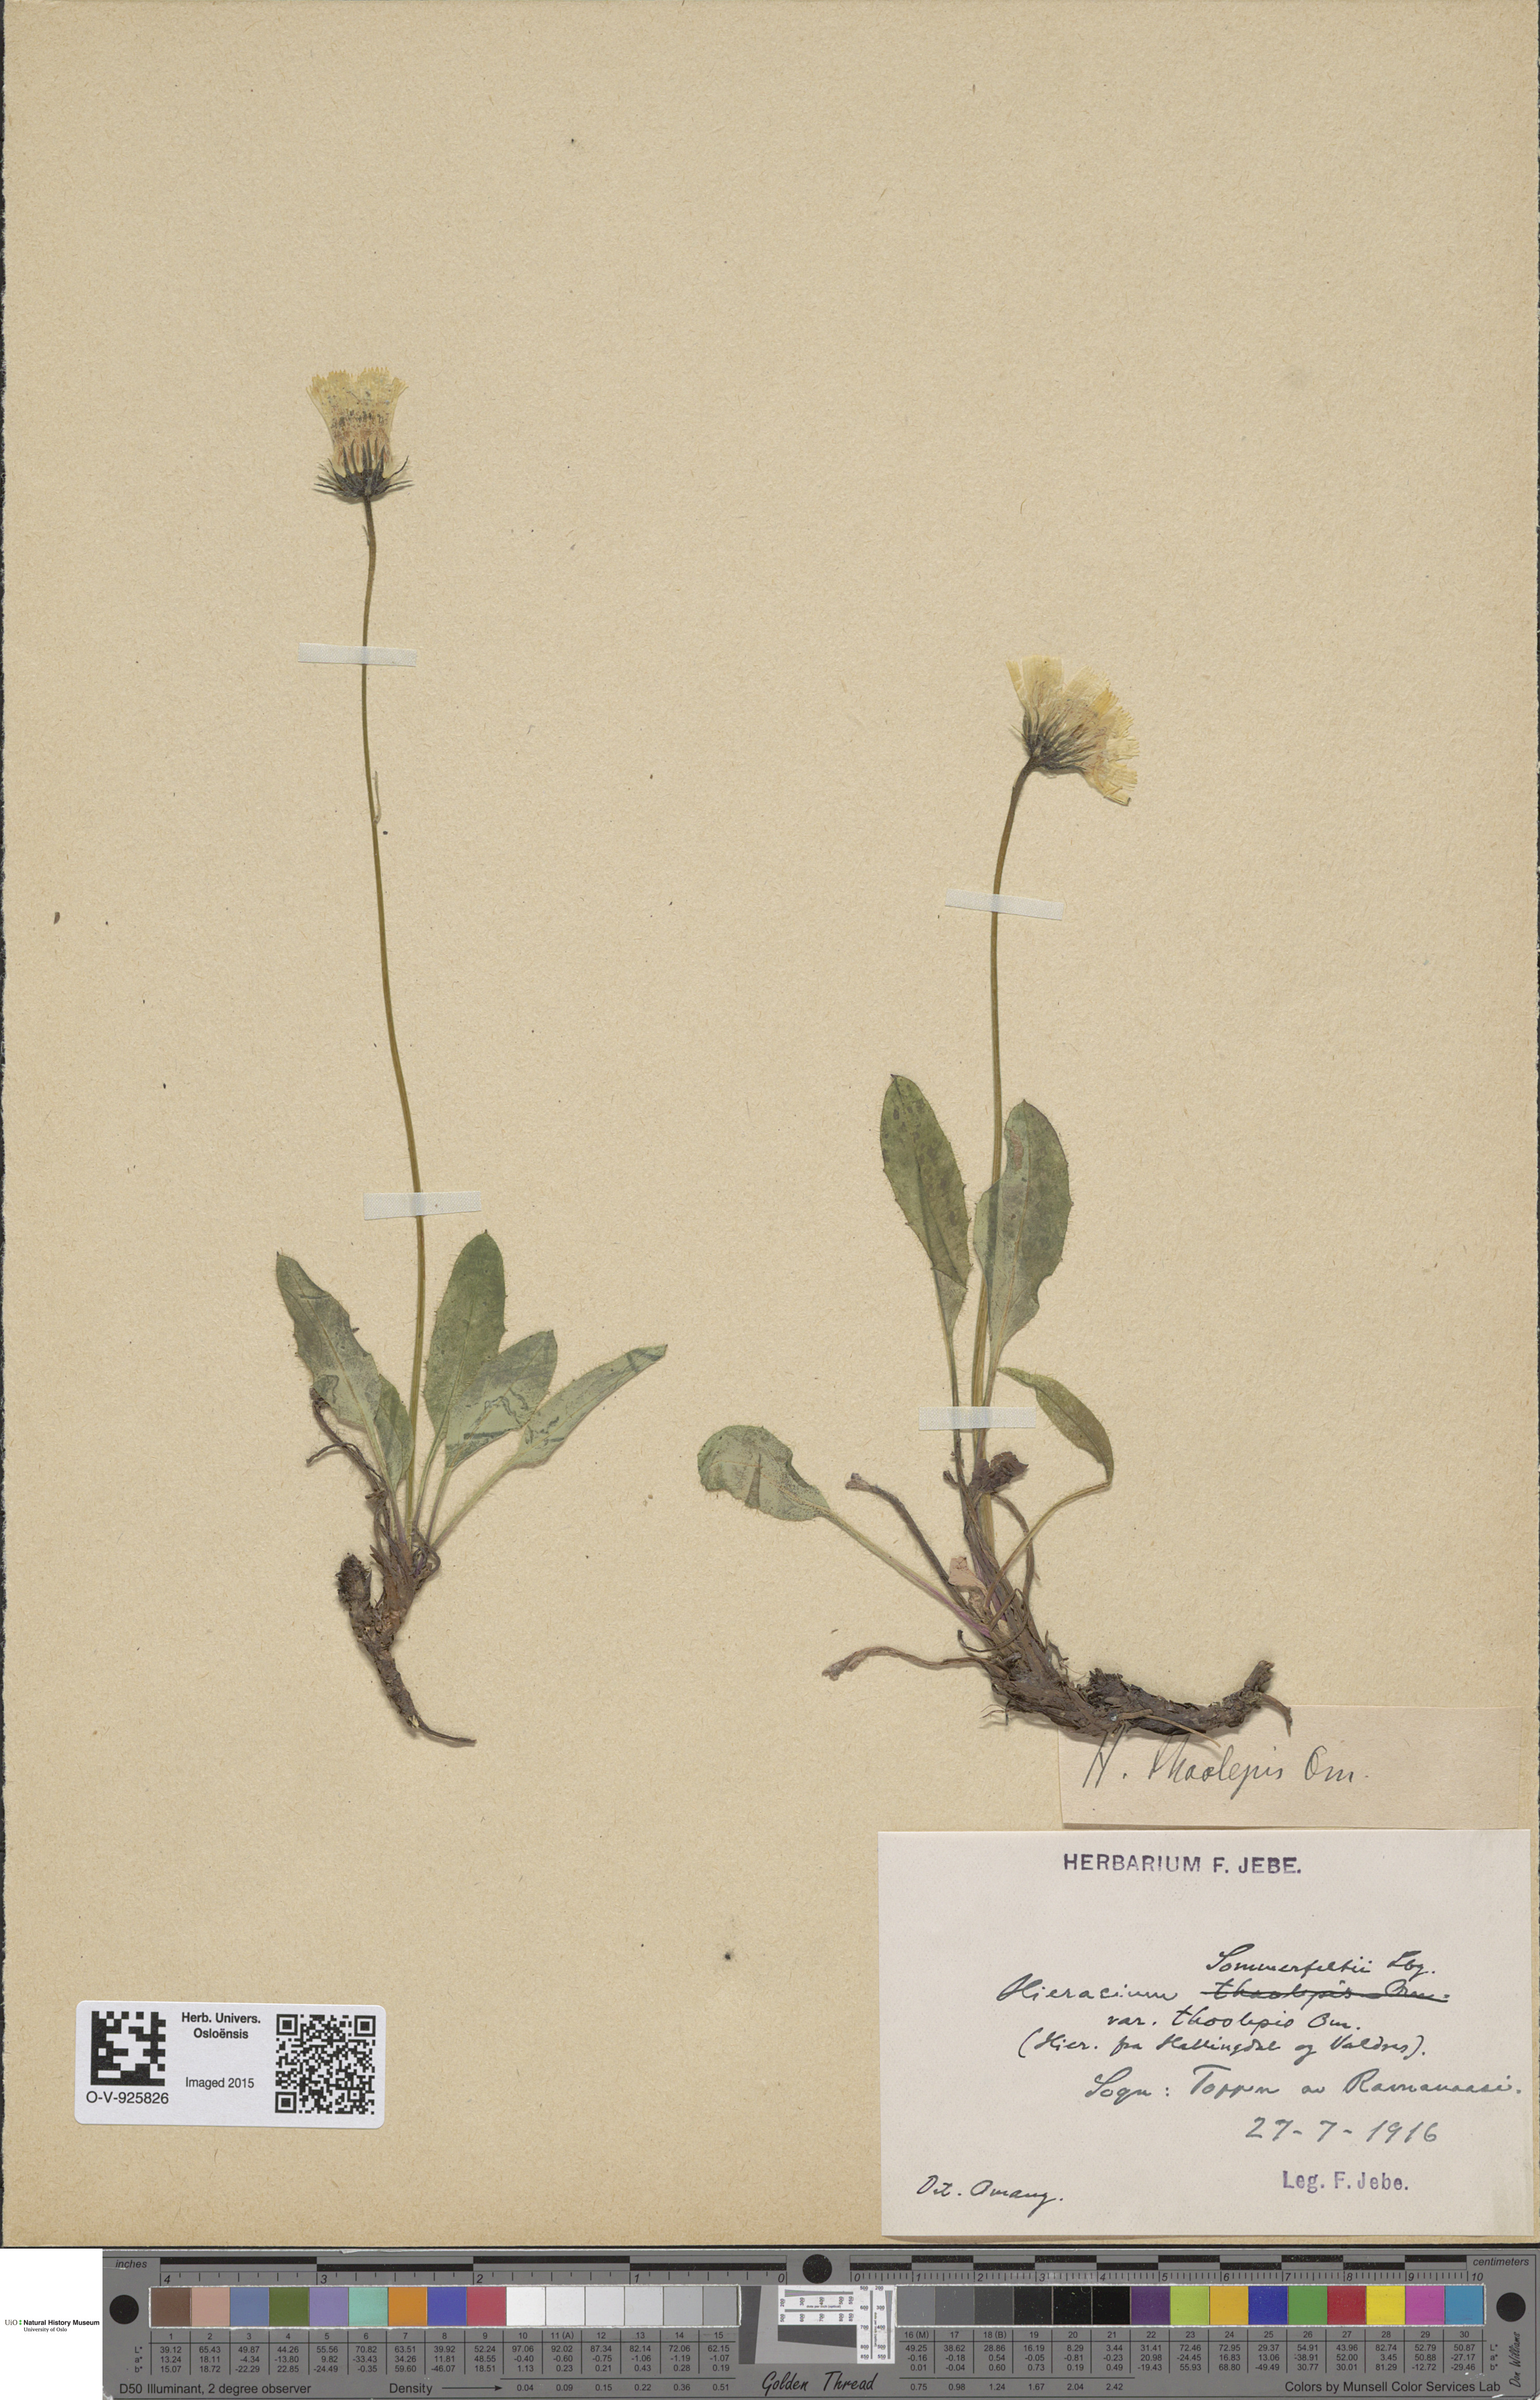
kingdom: Plantae
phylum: Tracheophyta
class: Magnoliopsida
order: Asterales
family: Asteraceae
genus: Hieracium
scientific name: Hieracium sommerfeltii
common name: Sommerfelt's hawkweed
